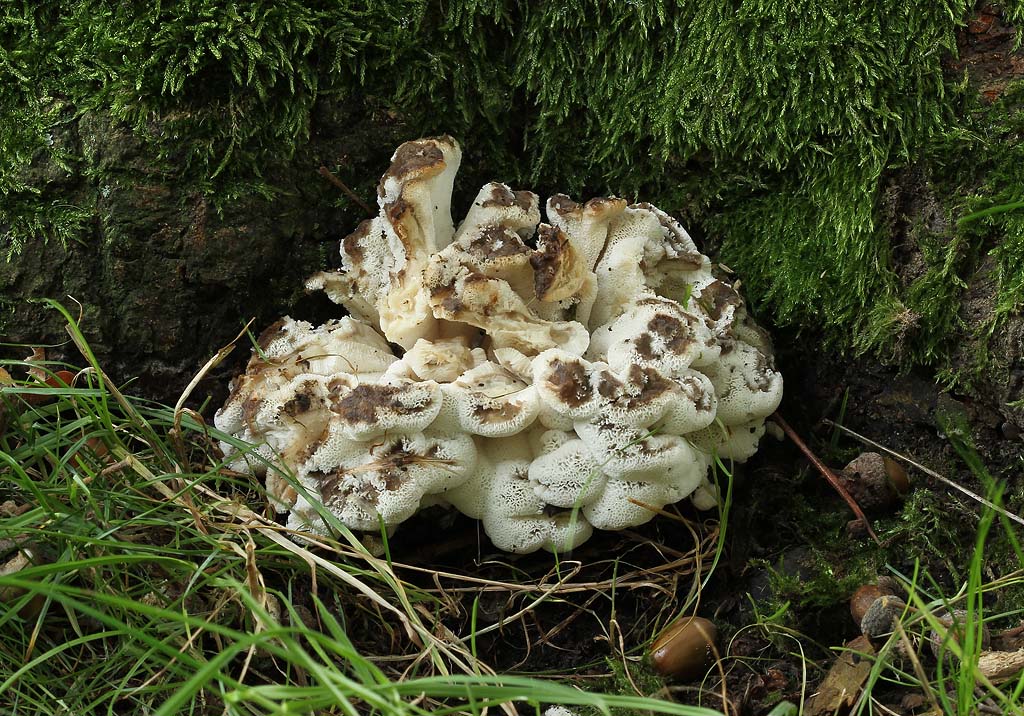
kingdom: Fungi
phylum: Basidiomycota
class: Agaricomycetes
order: Polyporales
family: Grifolaceae
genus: Grifola
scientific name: Grifola frondosa
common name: tueporesvamp
